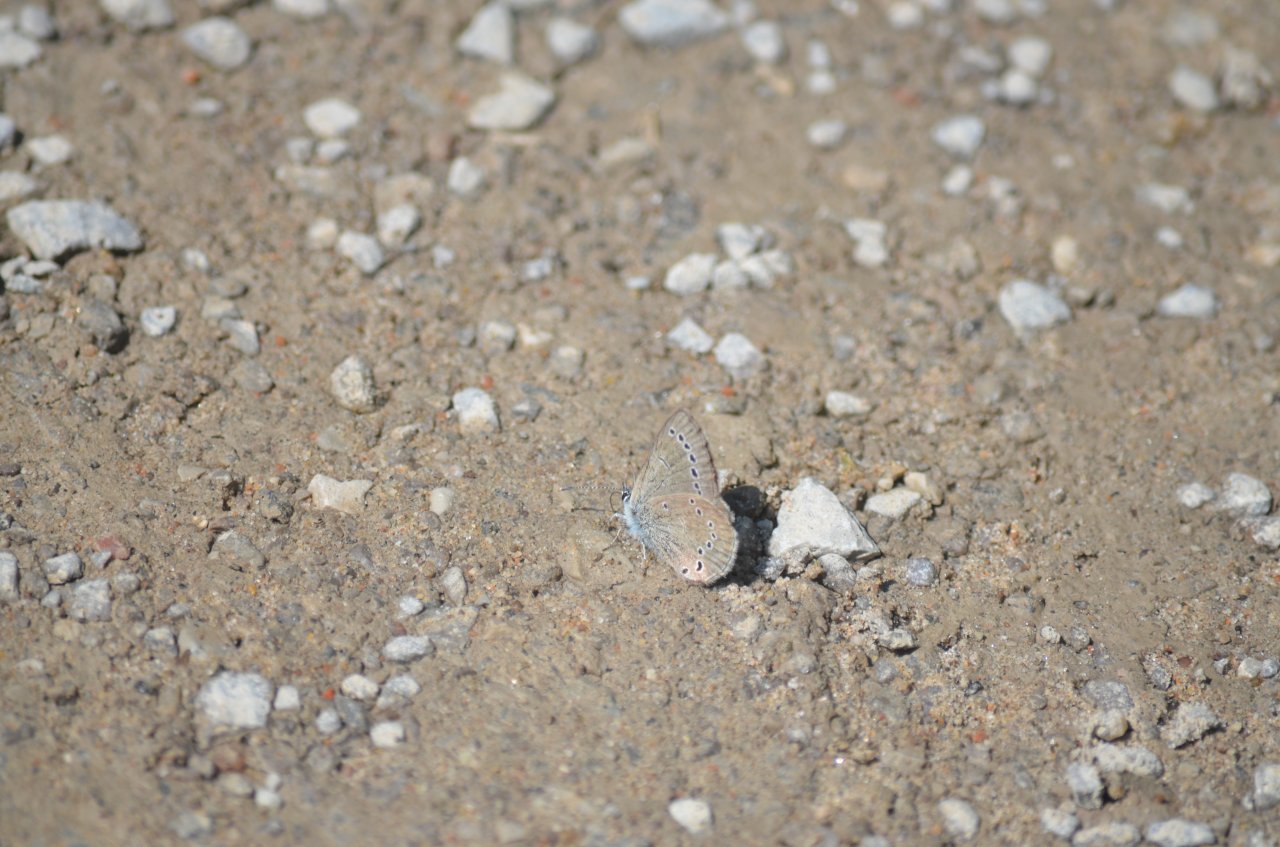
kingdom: Animalia
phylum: Arthropoda
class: Insecta
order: Lepidoptera
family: Lycaenidae
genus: Glaucopsyche
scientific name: Glaucopsyche lygdamus
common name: Silvery Blue
